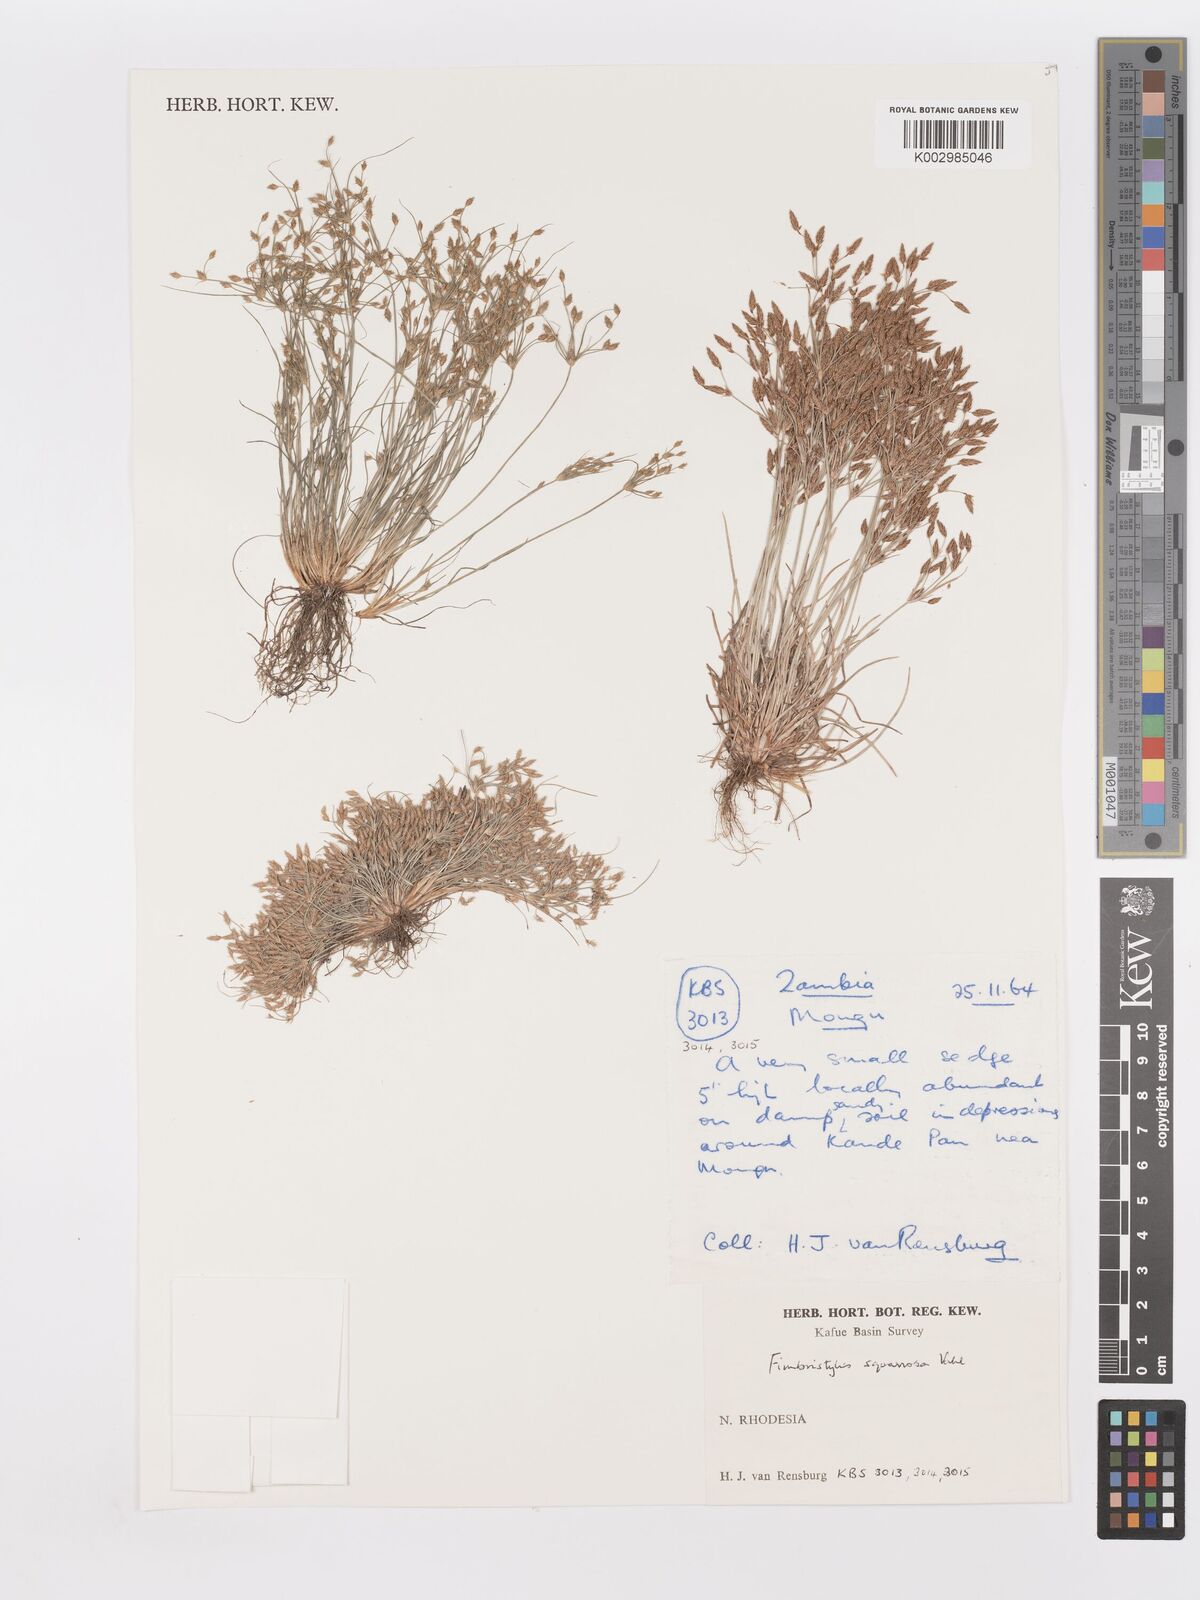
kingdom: Plantae
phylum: Tracheophyta
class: Liliopsida
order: Poales
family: Cyperaceae
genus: Fimbristylis
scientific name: Fimbristylis squarrosa
